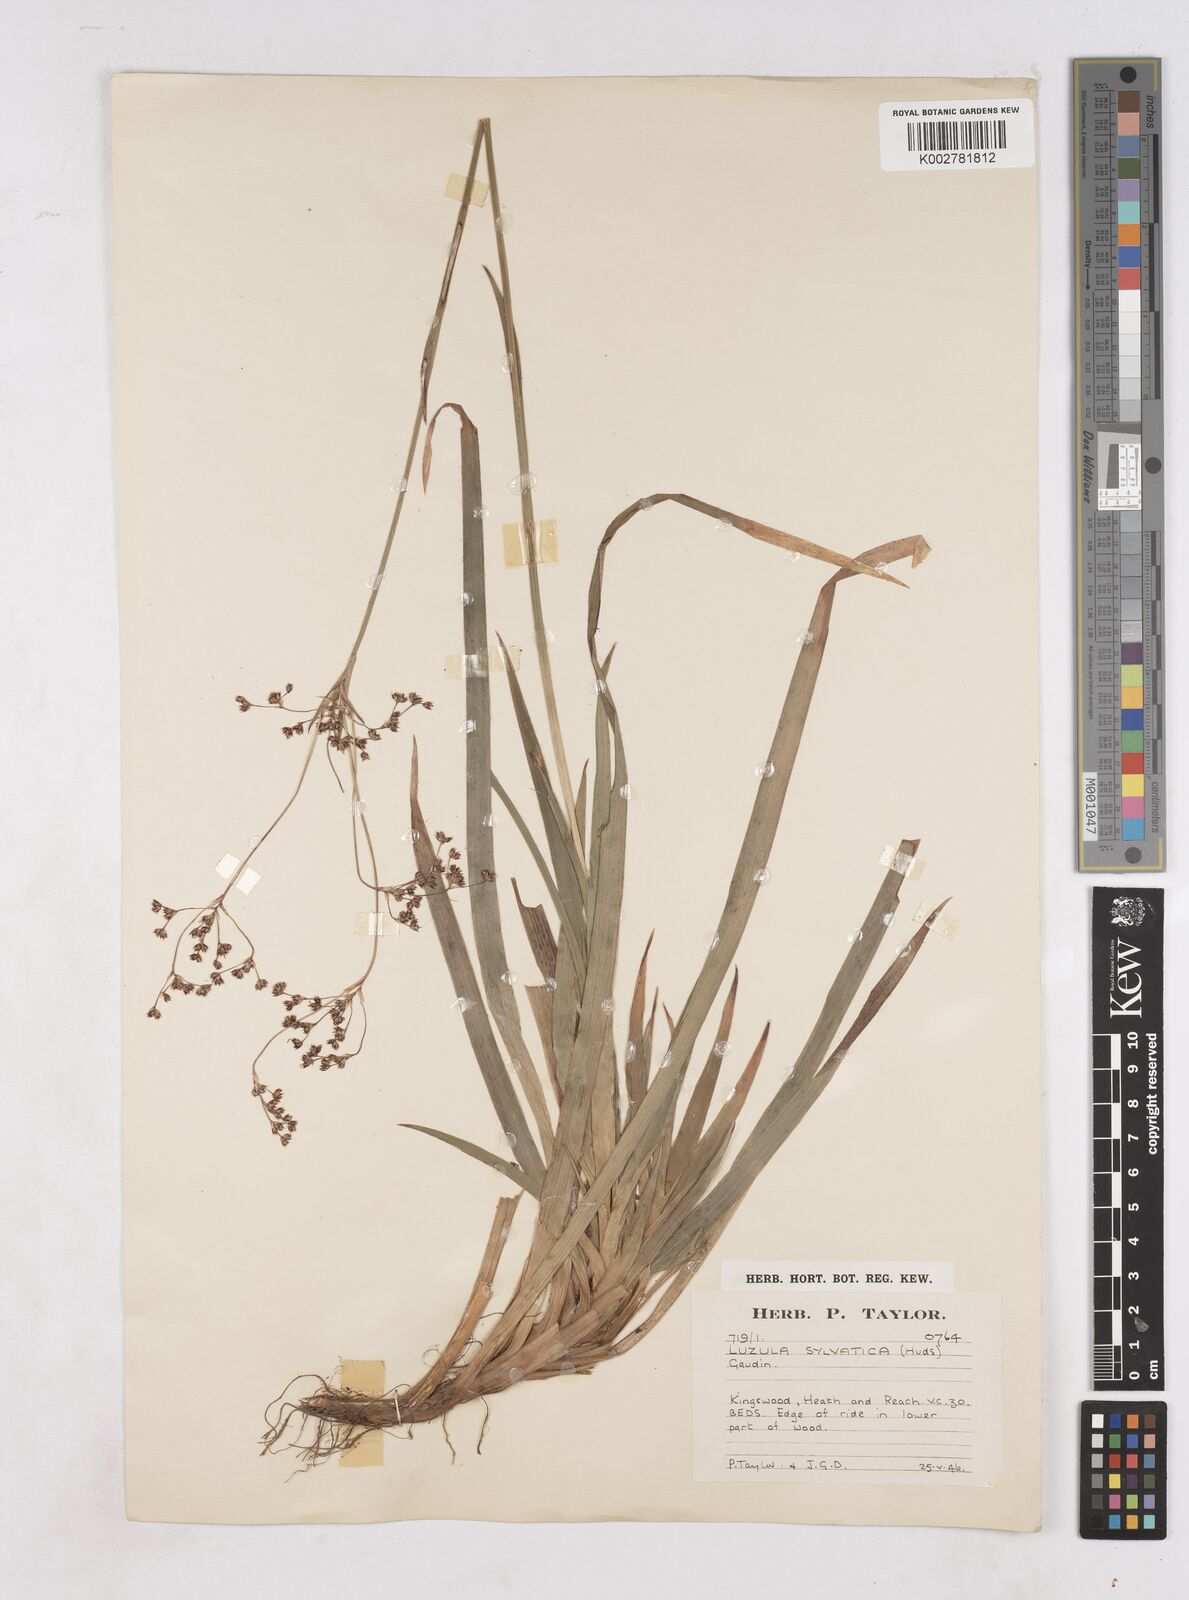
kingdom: Plantae
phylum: Tracheophyta
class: Liliopsida
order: Poales
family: Juncaceae
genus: Luzula
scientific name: Luzula sylvatica
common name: Great wood-rush
